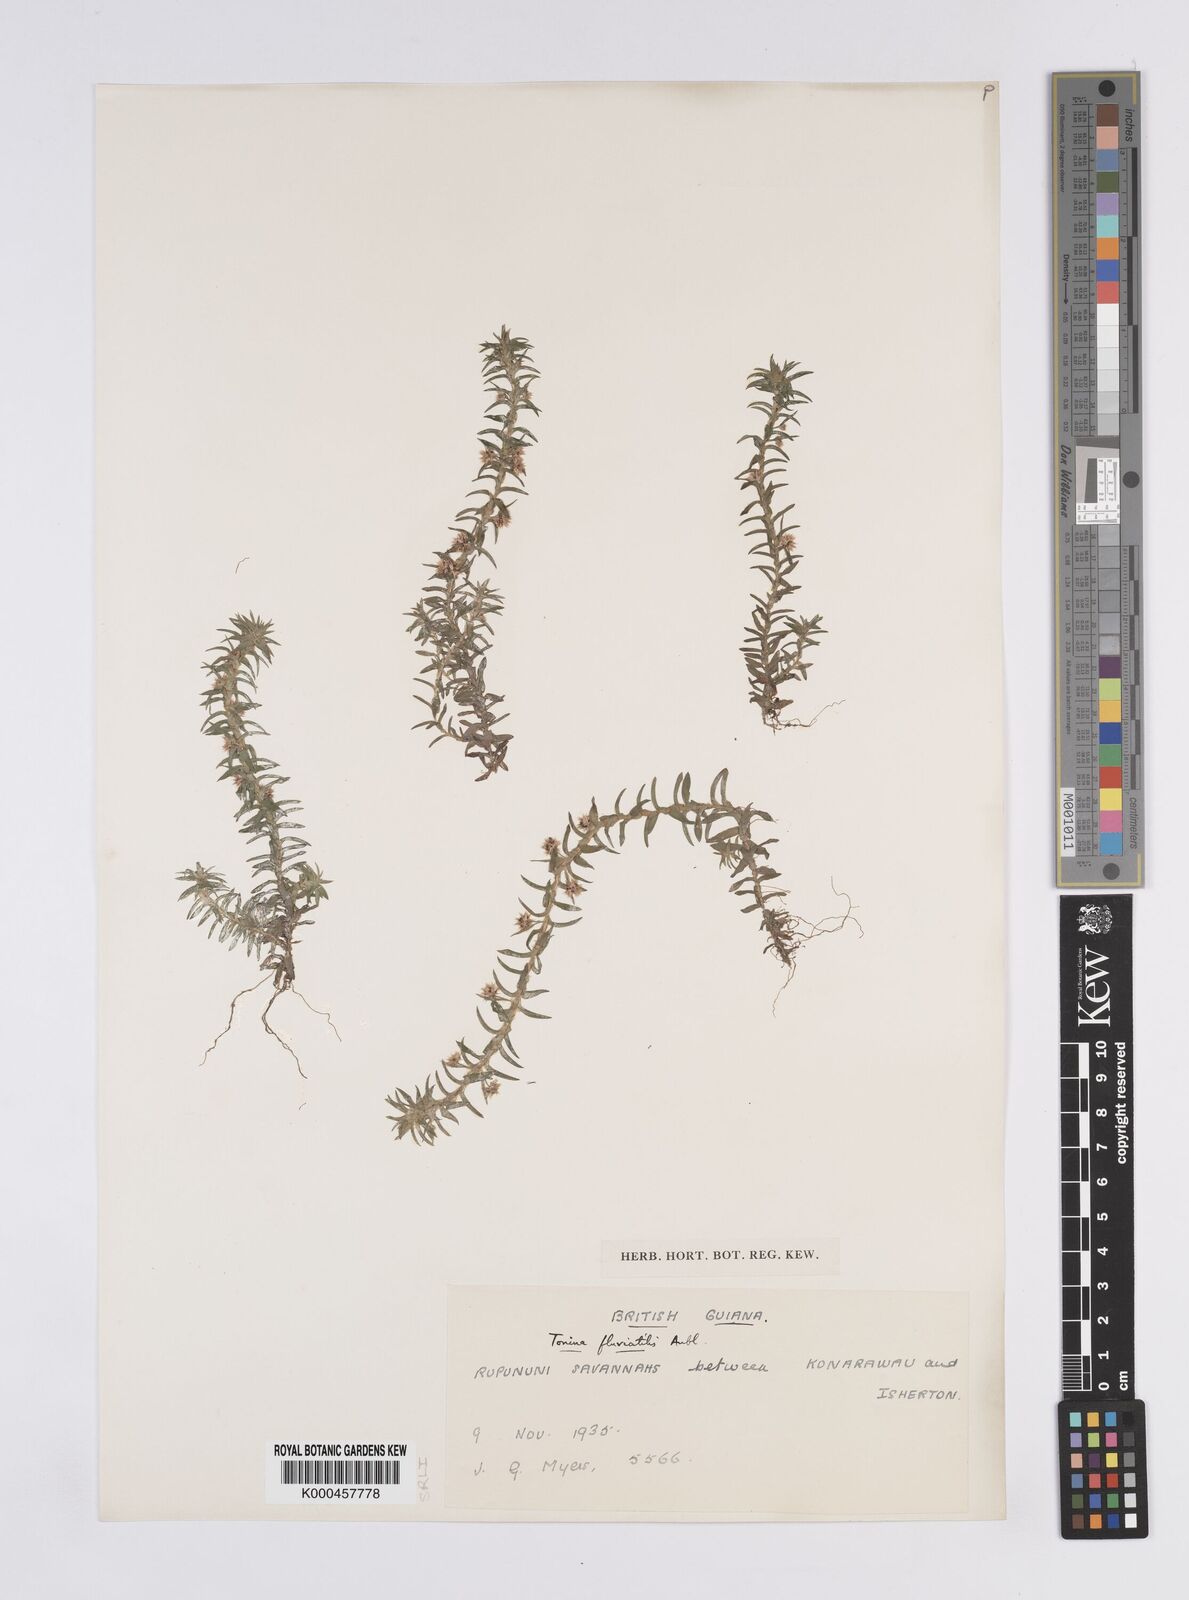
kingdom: Plantae
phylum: Tracheophyta
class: Liliopsida
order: Poales
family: Eriocaulaceae
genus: Paepalanthus
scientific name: Paepalanthus fluviatilis
